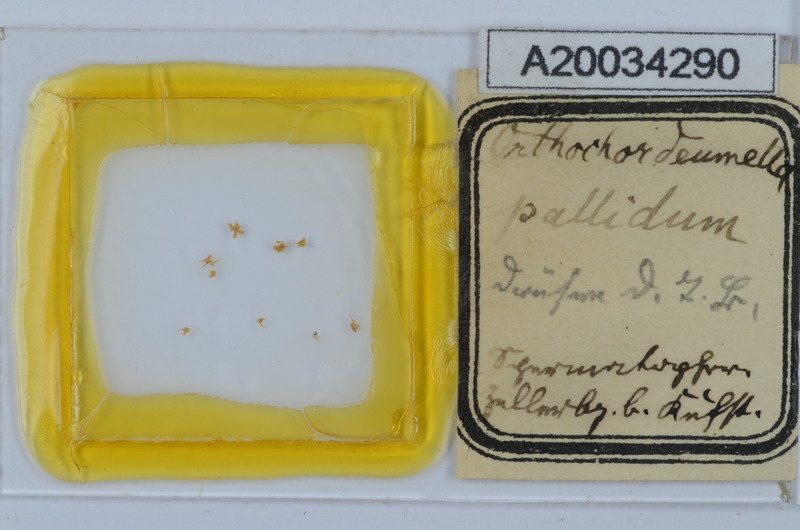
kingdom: Animalia
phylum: Arthropoda
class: Diplopoda
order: Chordeumatida
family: Chordeumatidae
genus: Orthochordeumella
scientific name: Orthochordeumella pallida
